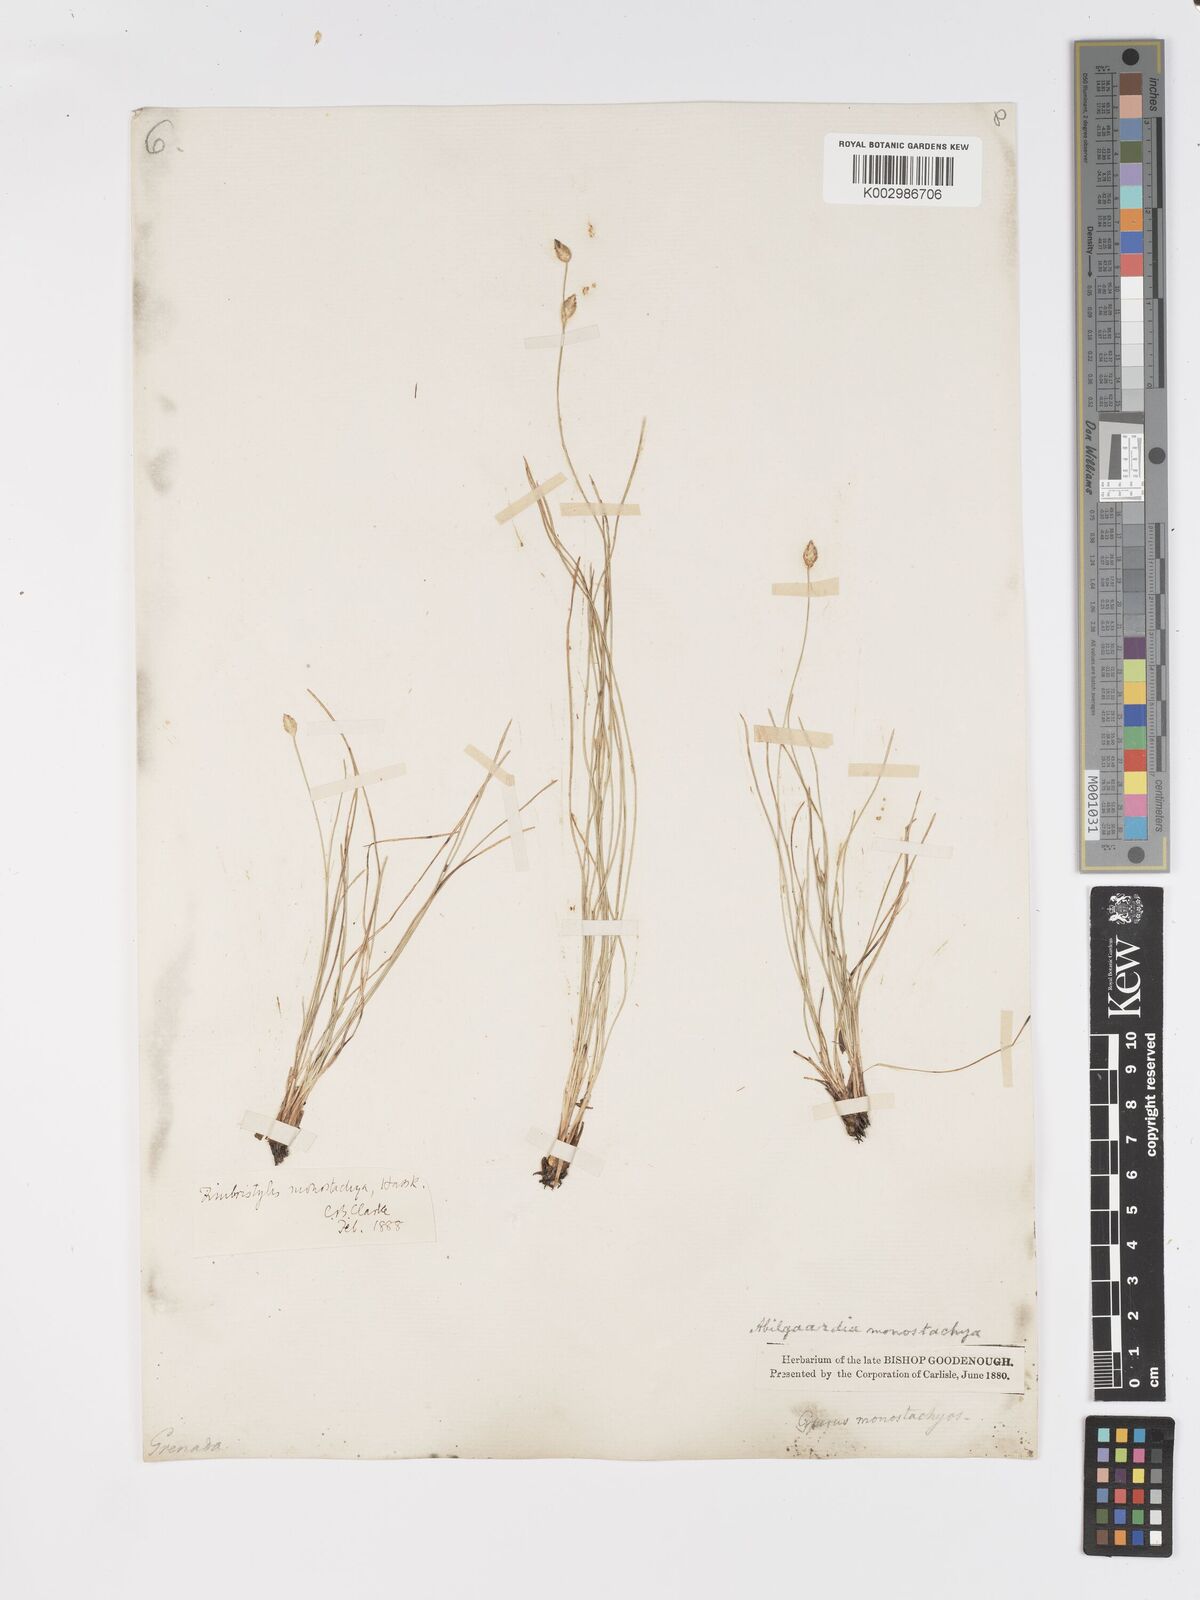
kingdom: Plantae
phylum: Tracheophyta
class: Liliopsida
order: Poales
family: Cyperaceae
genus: Abildgaardia
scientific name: Abildgaardia ovata
